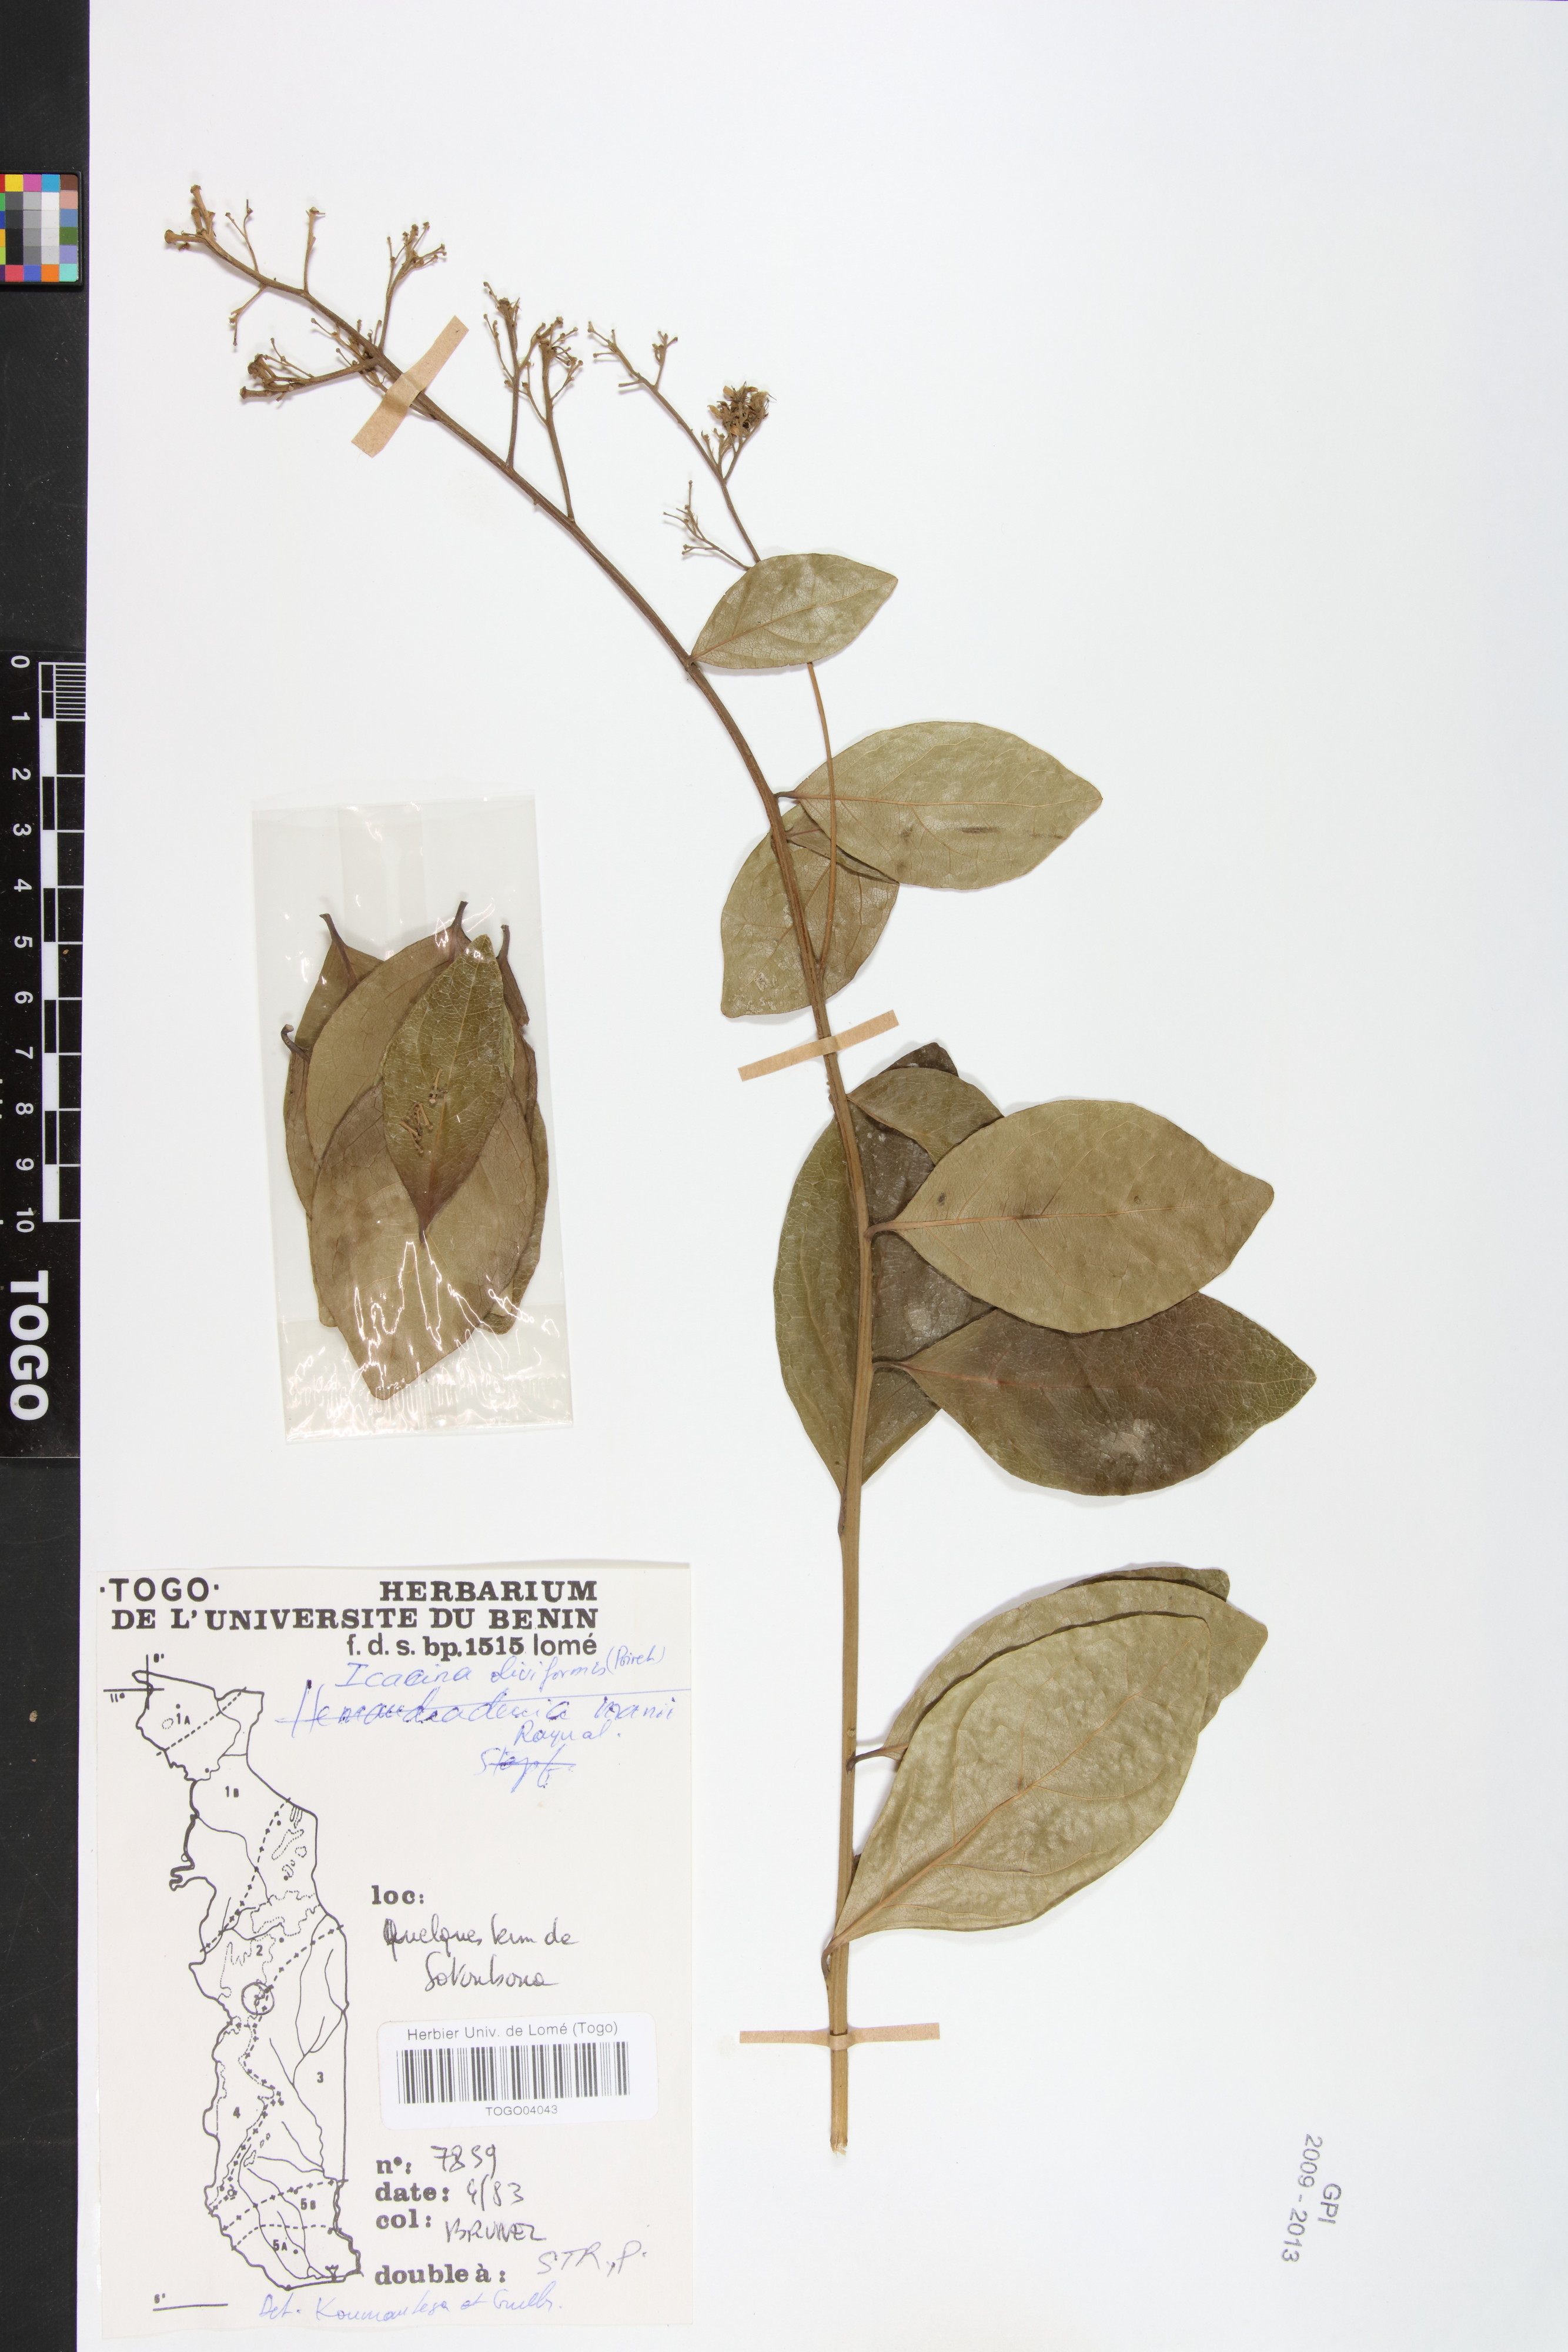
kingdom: Plantae
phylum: Tracheophyta
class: Magnoliopsida
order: Icacinales
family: Icacinaceae
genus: Icacina
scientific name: Icacina oliviformis
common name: False yam
